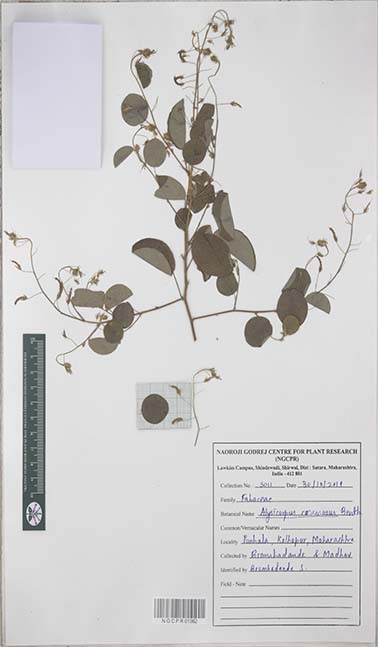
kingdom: Plantae
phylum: Tracheophyta
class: Magnoliopsida
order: Fabales
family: Fabaceae
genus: Alysicarpus
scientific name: Alysicarpus racemosus
